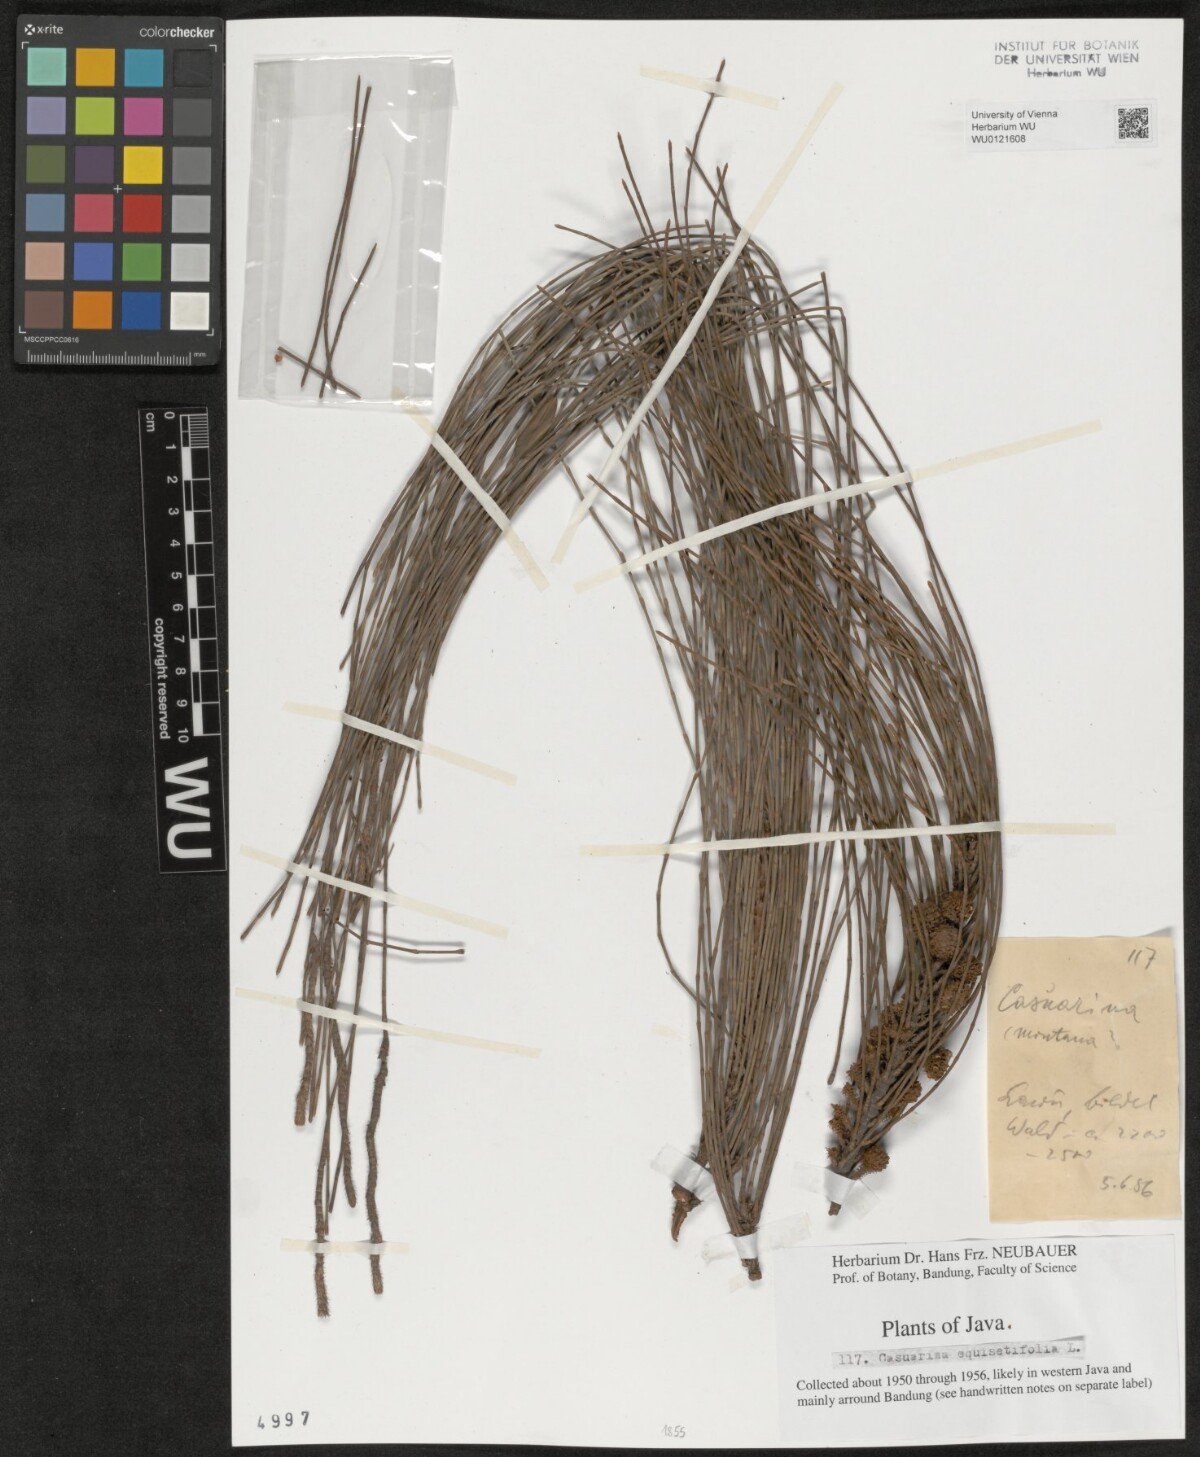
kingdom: Plantae
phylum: Tracheophyta
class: Magnoliopsida
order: Fagales
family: Casuarinaceae
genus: Casuarina
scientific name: Casuarina equisetifolia
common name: Beach sheoak
